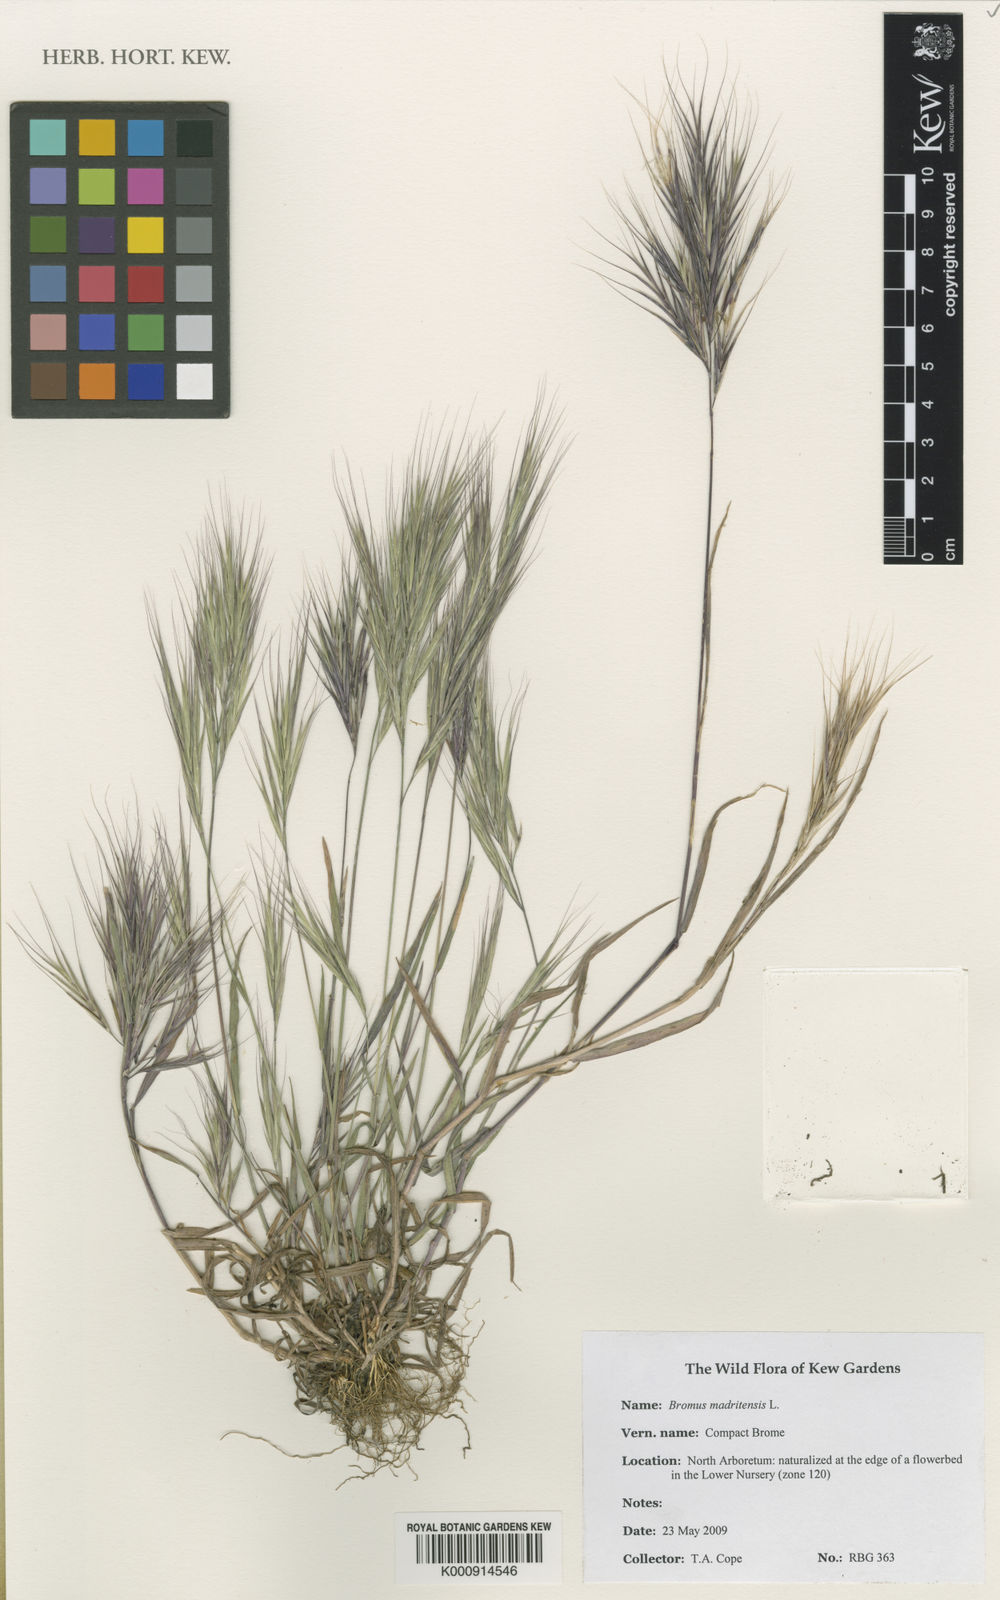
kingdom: Plantae
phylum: Tracheophyta
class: Liliopsida
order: Poales
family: Poaceae
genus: Bromus
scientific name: Bromus madritensis
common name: Compact brome
